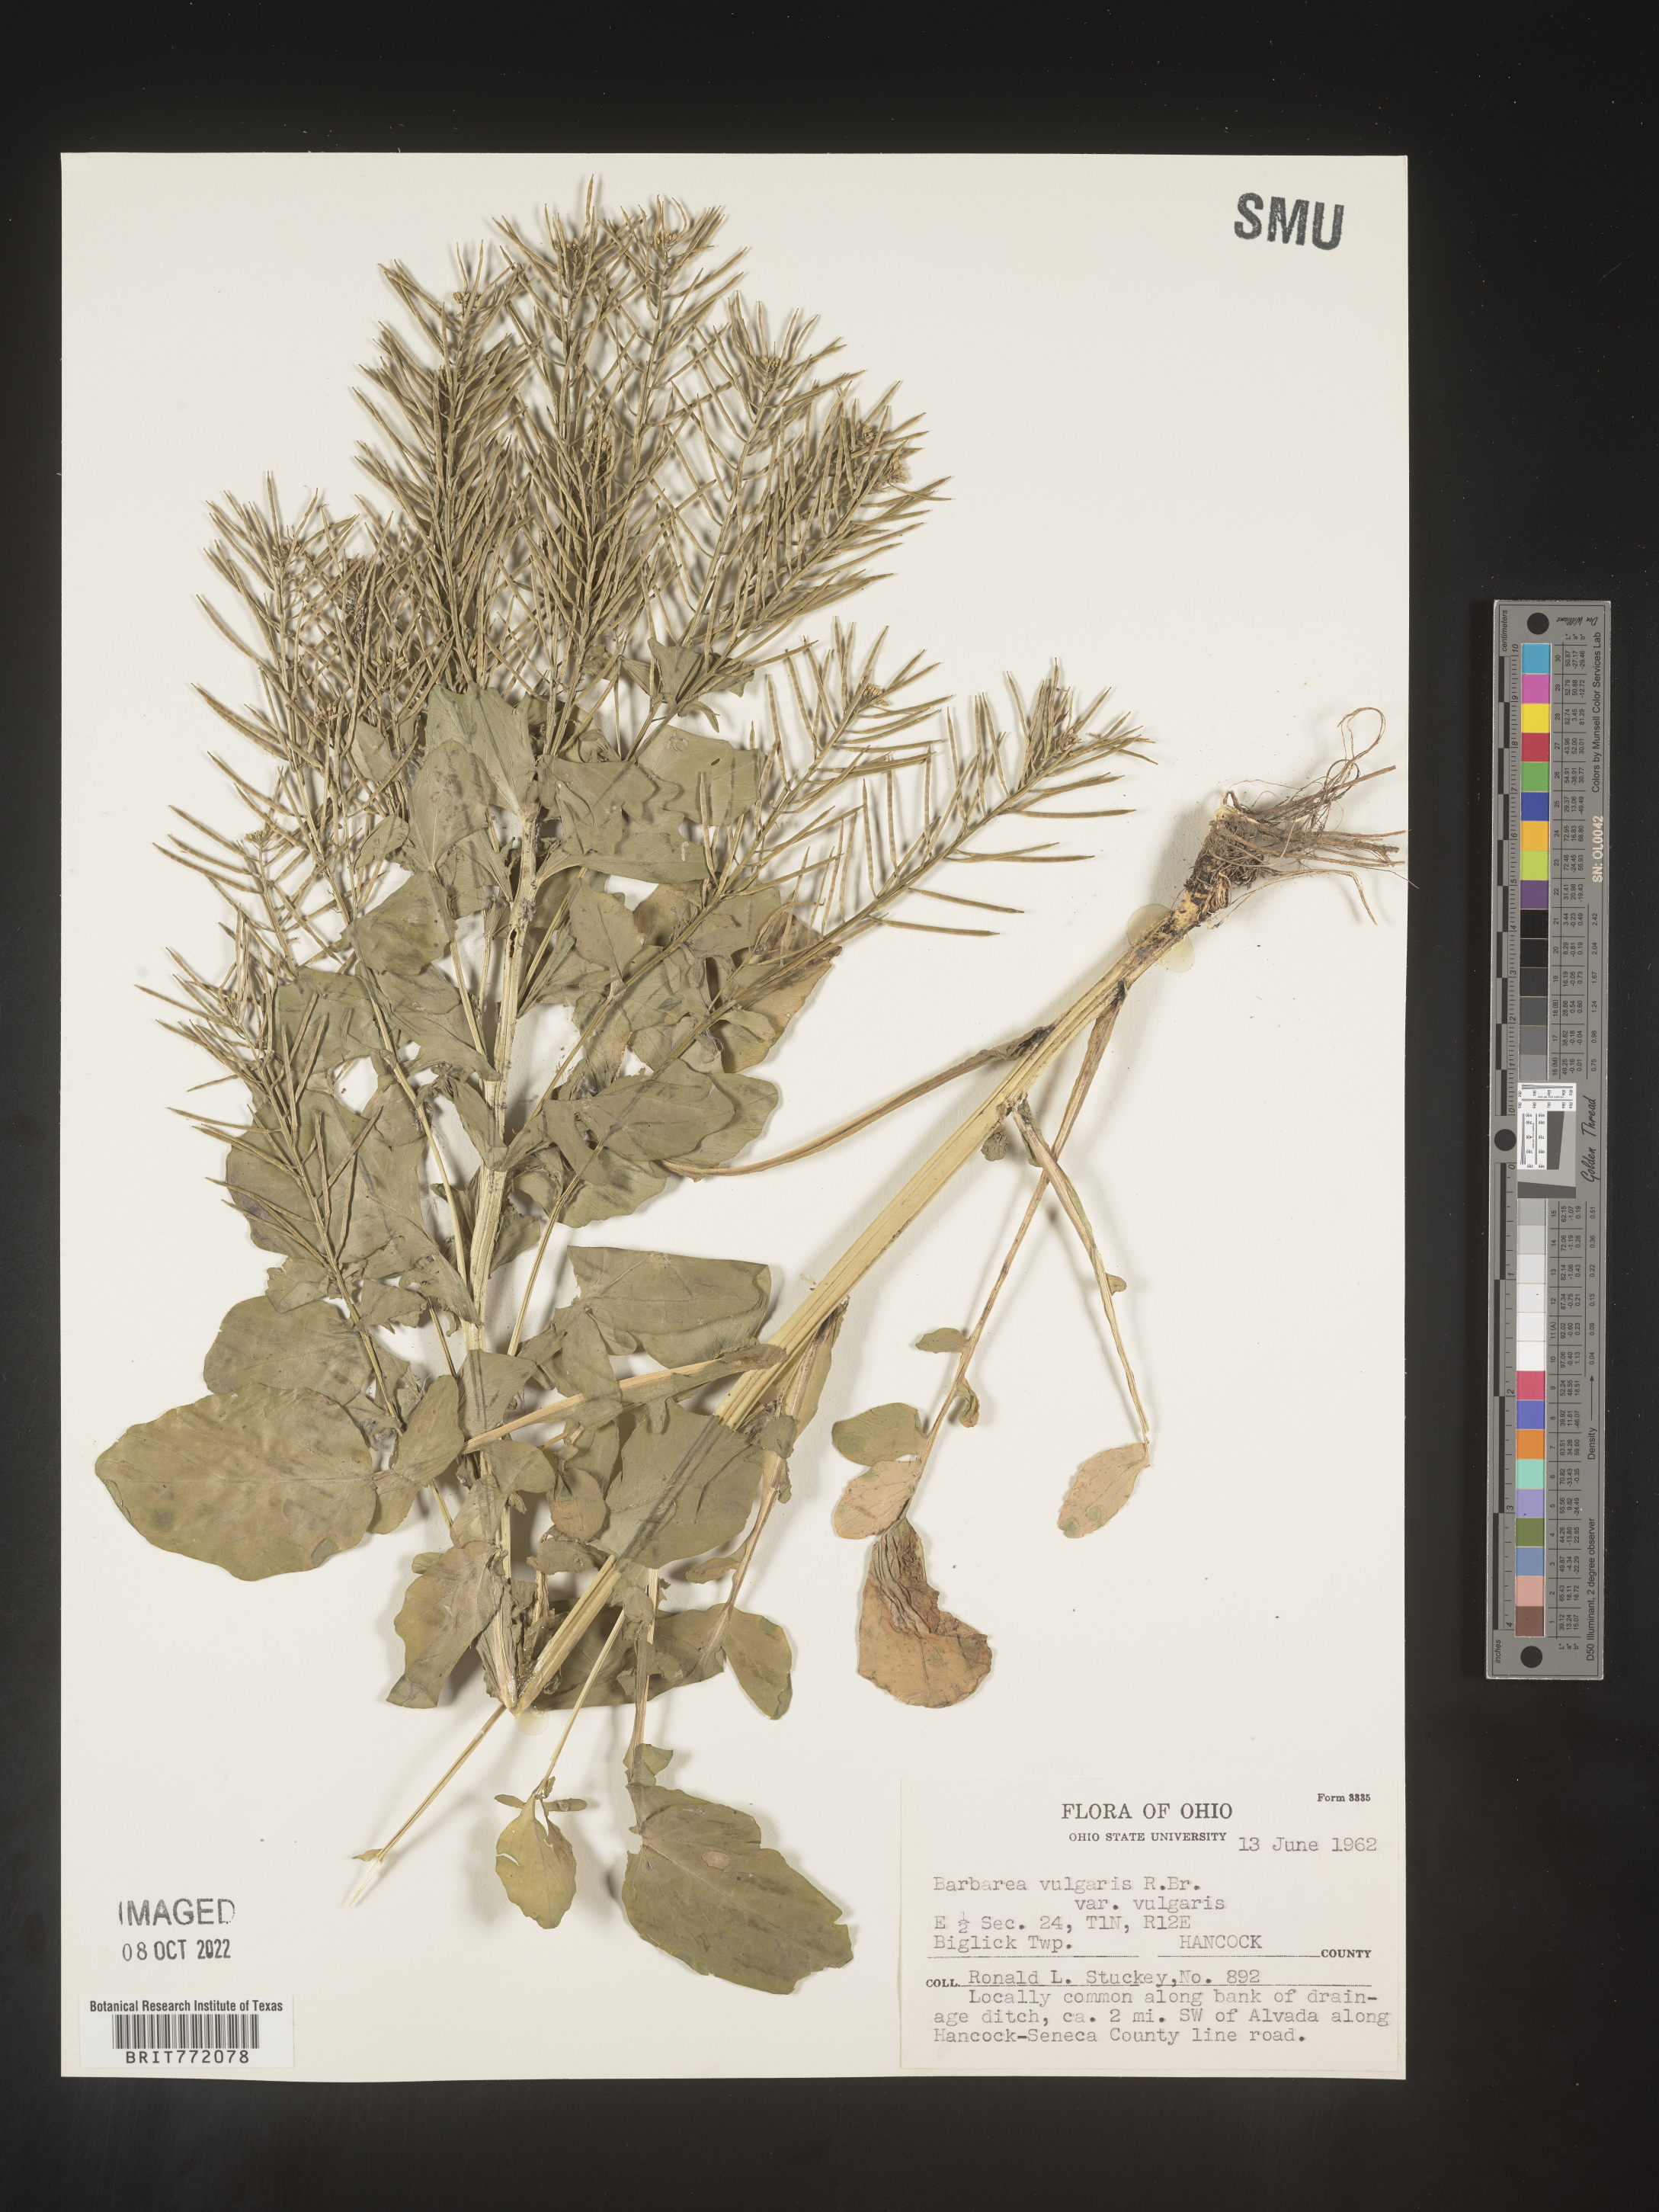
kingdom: Plantae
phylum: Tracheophyta
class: Magnoliopsida
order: Brassicales
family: Brassicaceae
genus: Barbarea
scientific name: Barbarea vulgaris
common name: Cressy-greens
